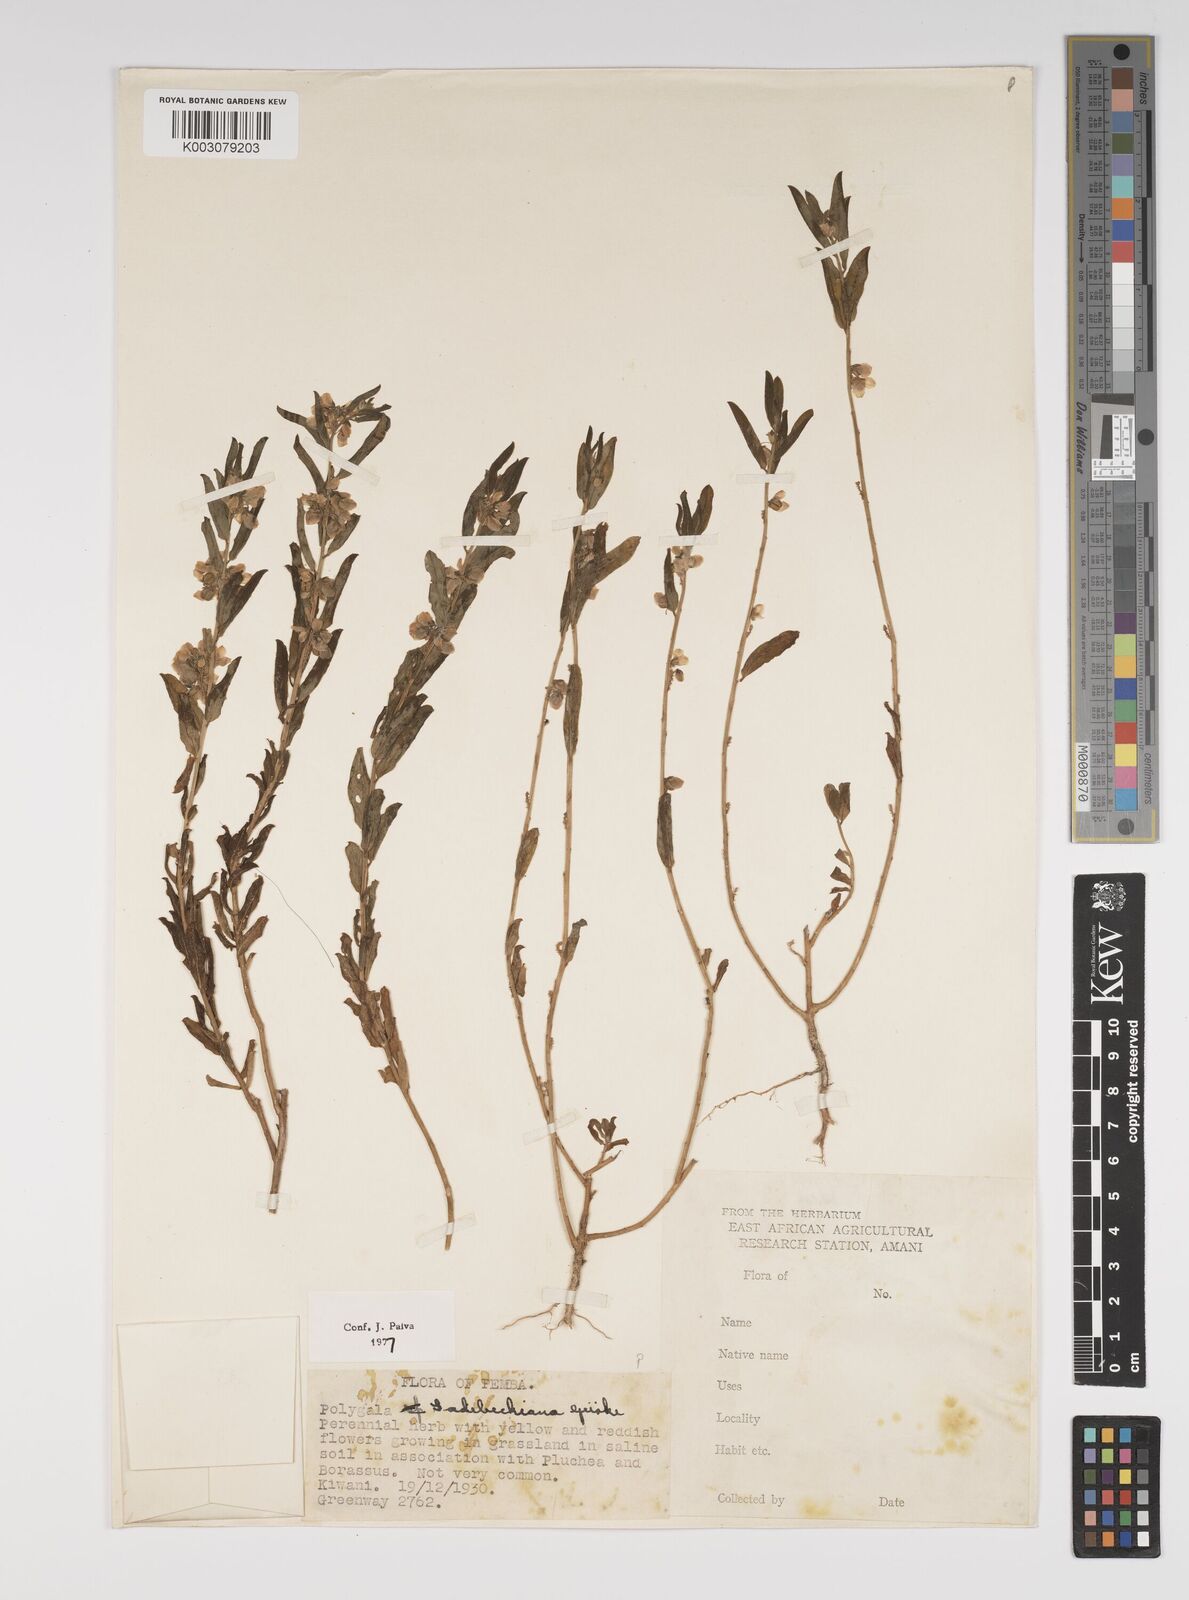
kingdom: Plantae
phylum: Tracheophyta
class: Magnoliopsida
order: Fabales
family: Polygalaceae
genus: Polygala
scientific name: Polygala sadebeckiana
